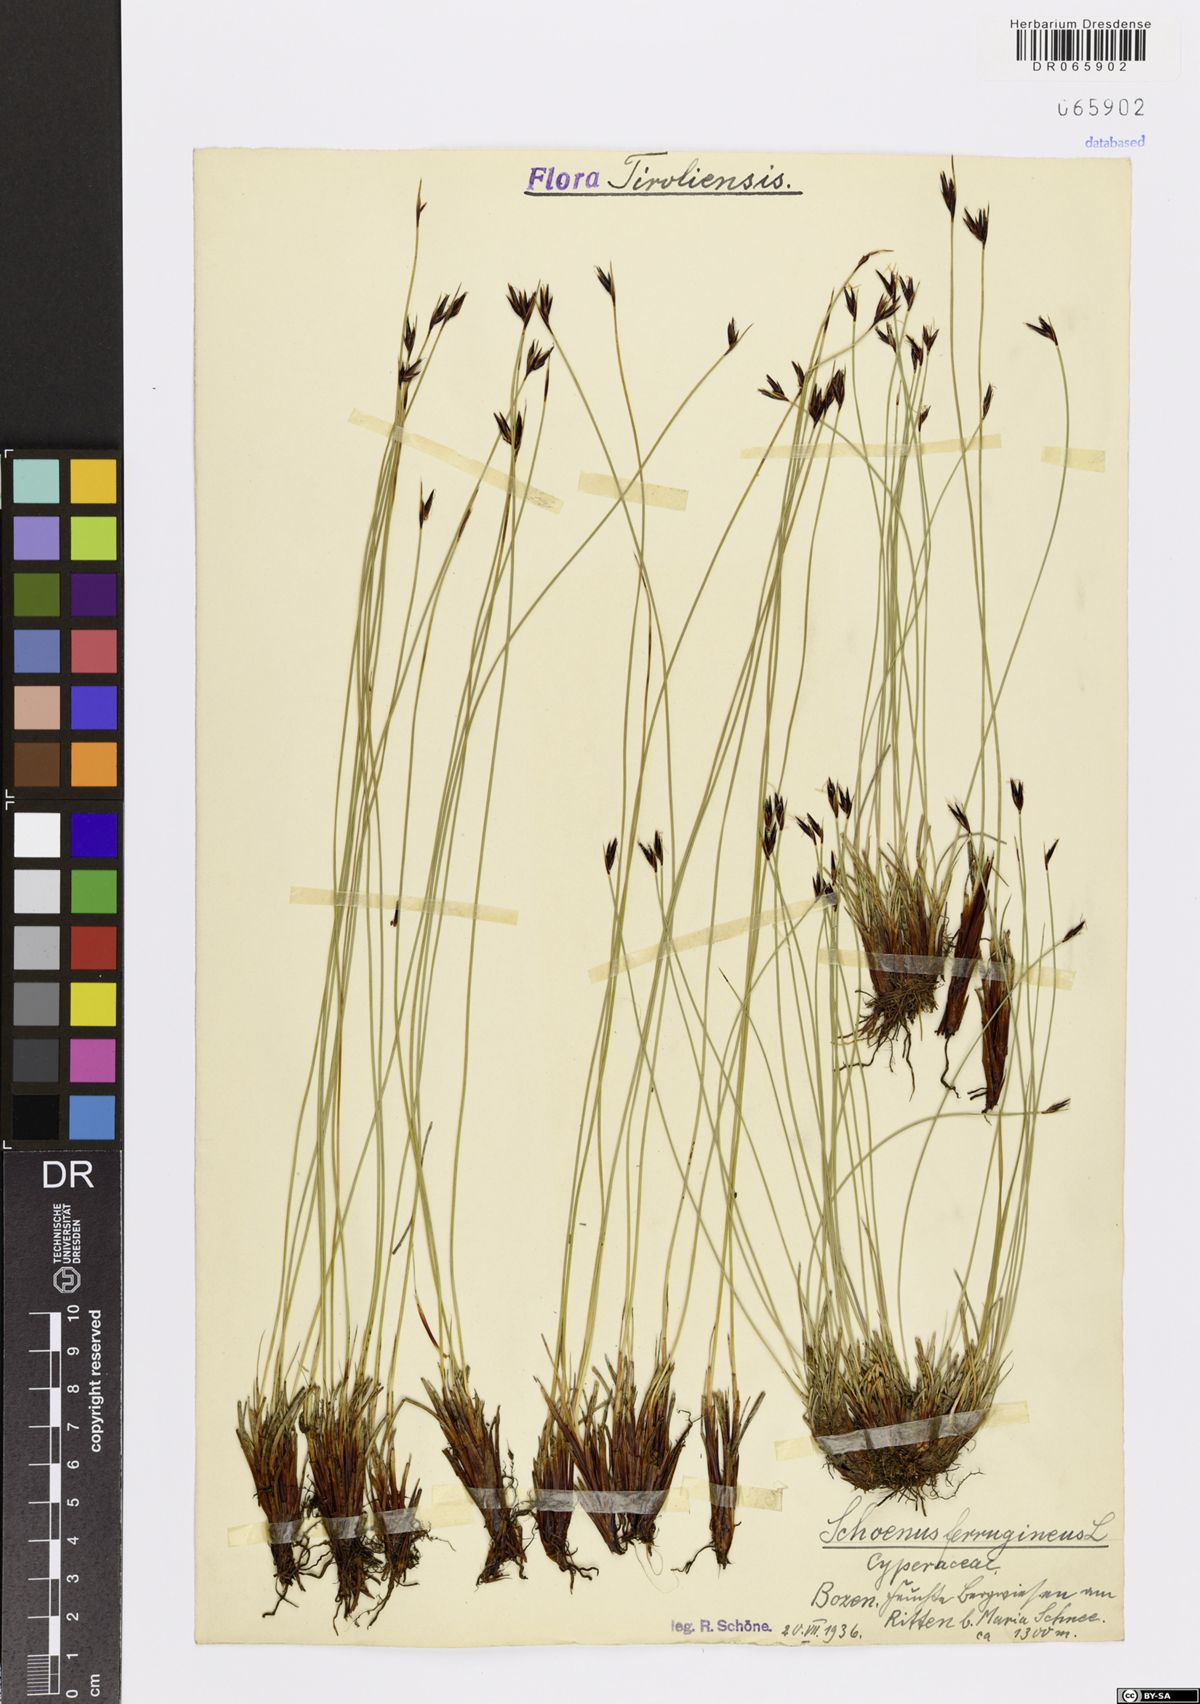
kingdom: Plantae
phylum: Tracheophyta
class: Liliopsida
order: Poales
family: Cyperaceae
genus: Schoenus
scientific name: Schoenus ferrugineus
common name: Brown bog-rush
